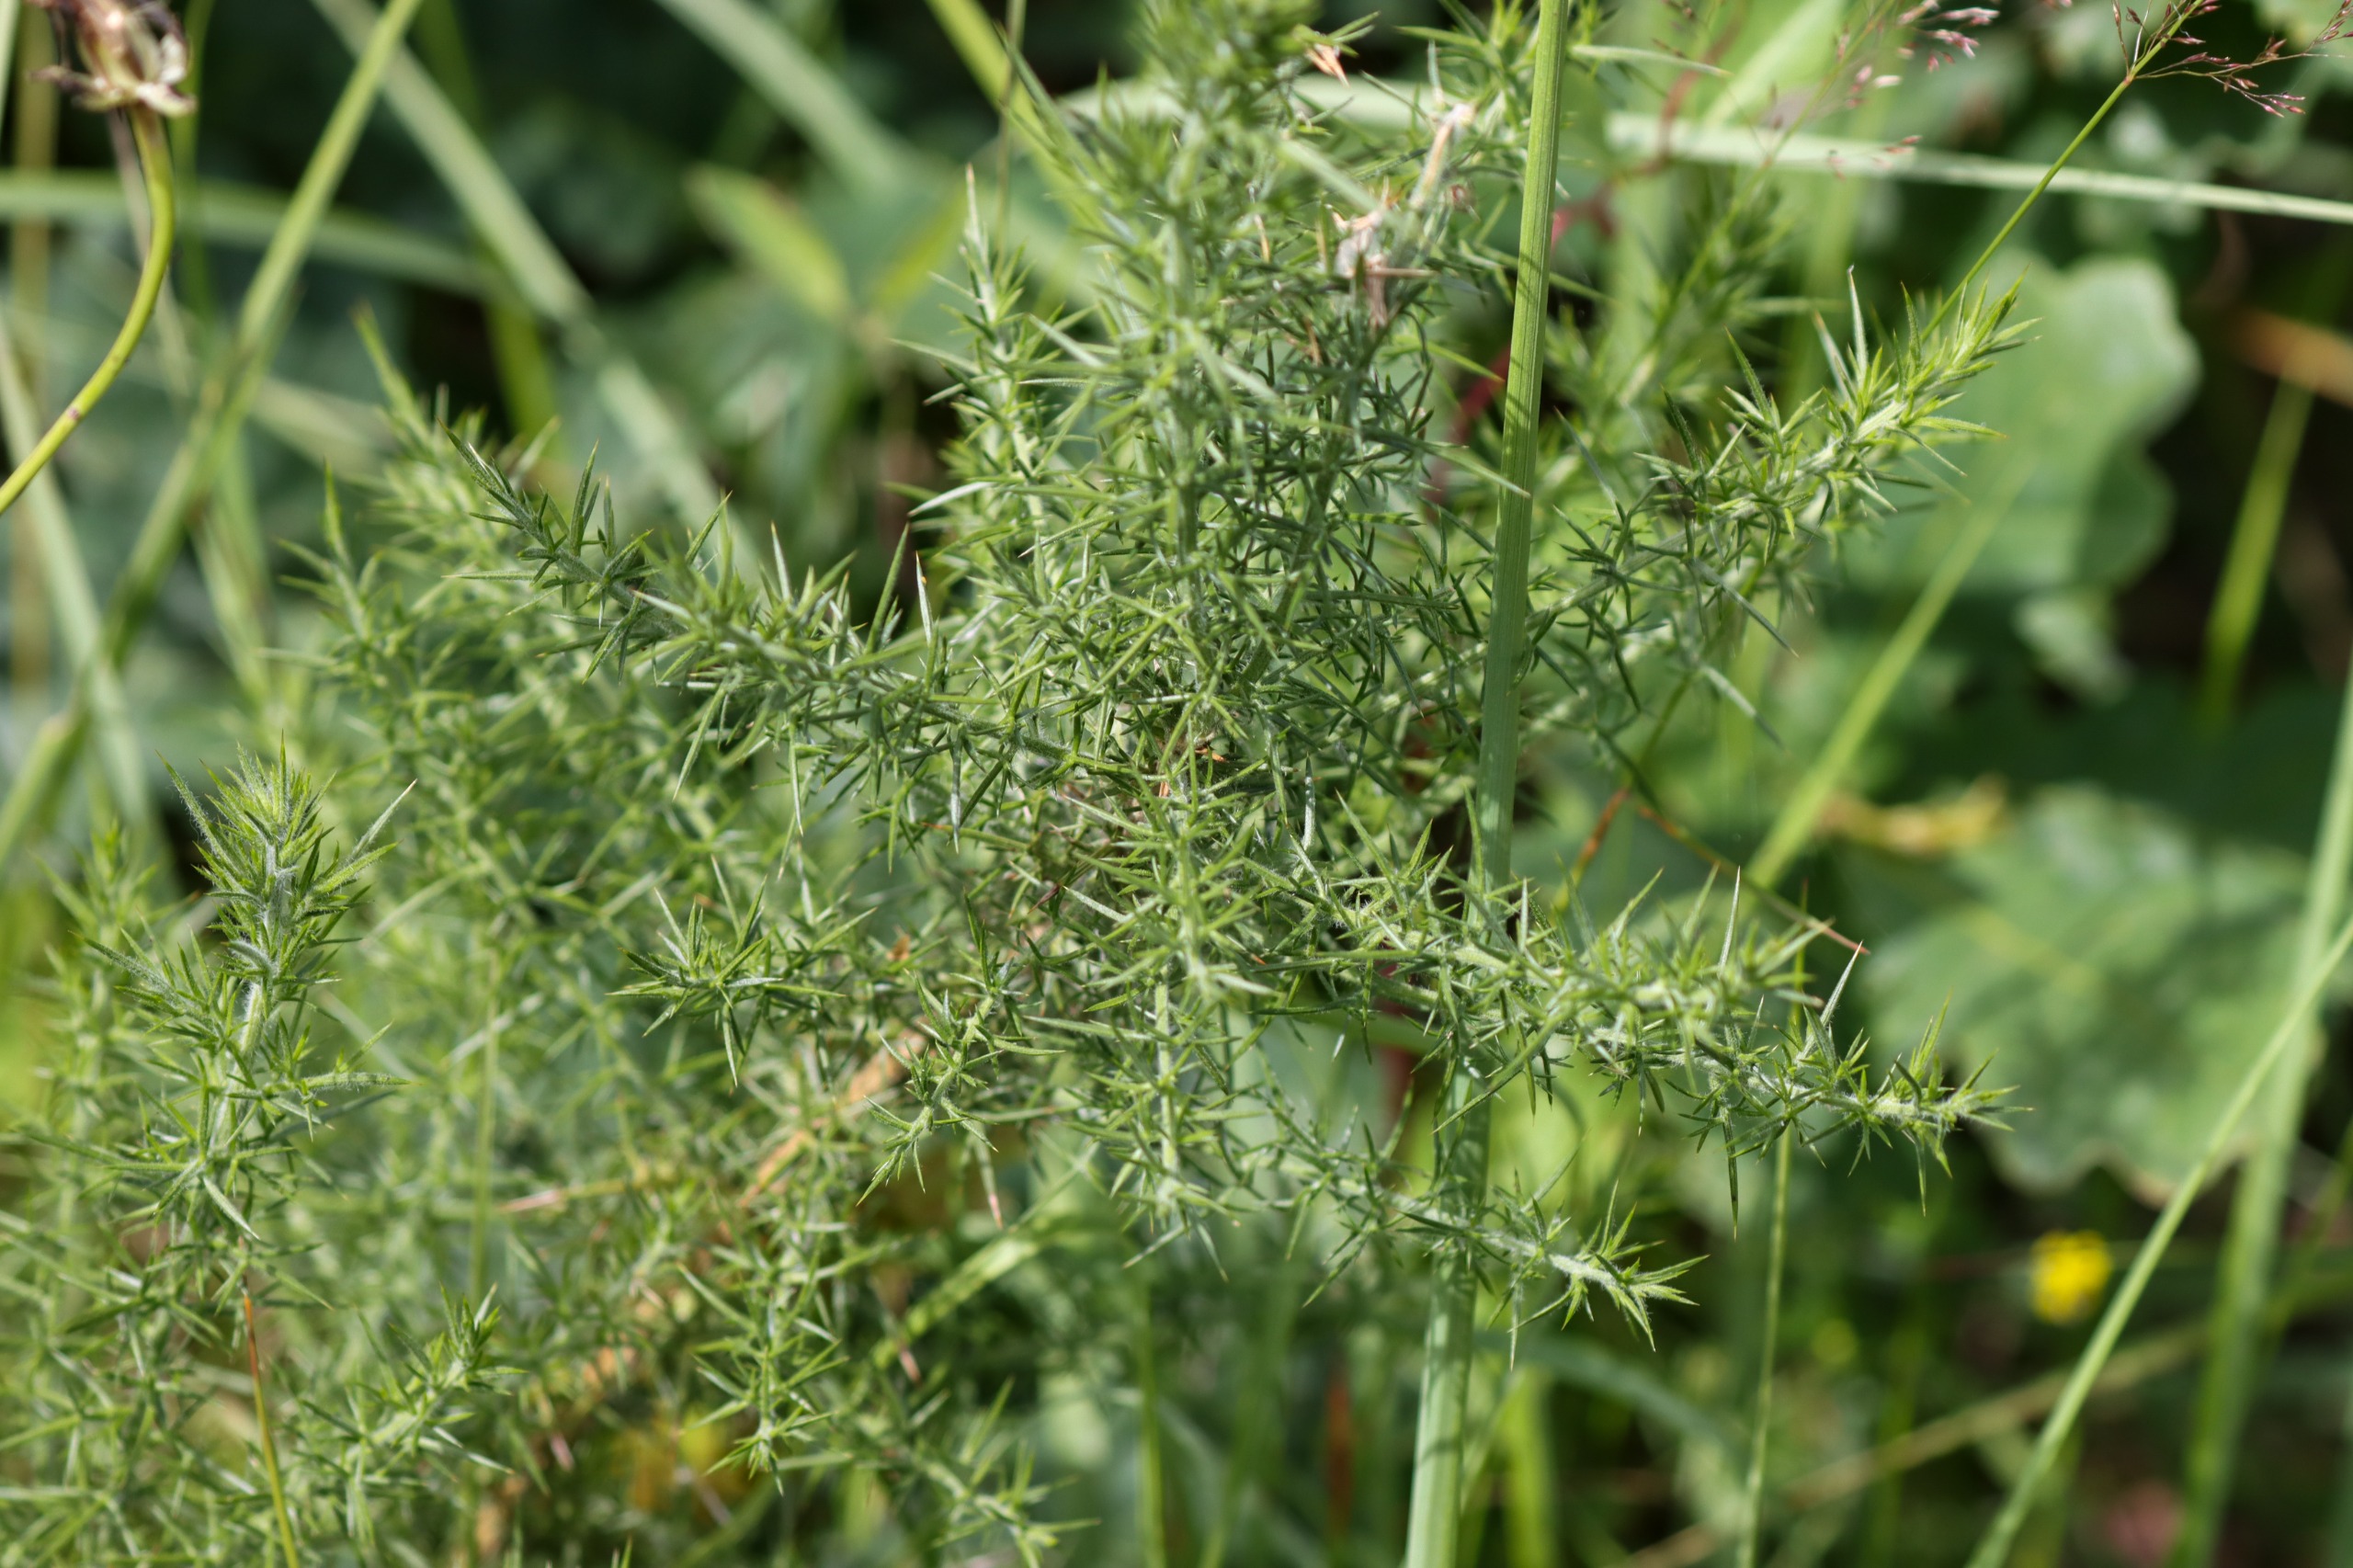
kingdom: Plantae
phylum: Tracheophyta
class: Magnoliopsida
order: Fabales
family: Fabaceae
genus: Ulex
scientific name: Ulex europaeus
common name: Tornblad
